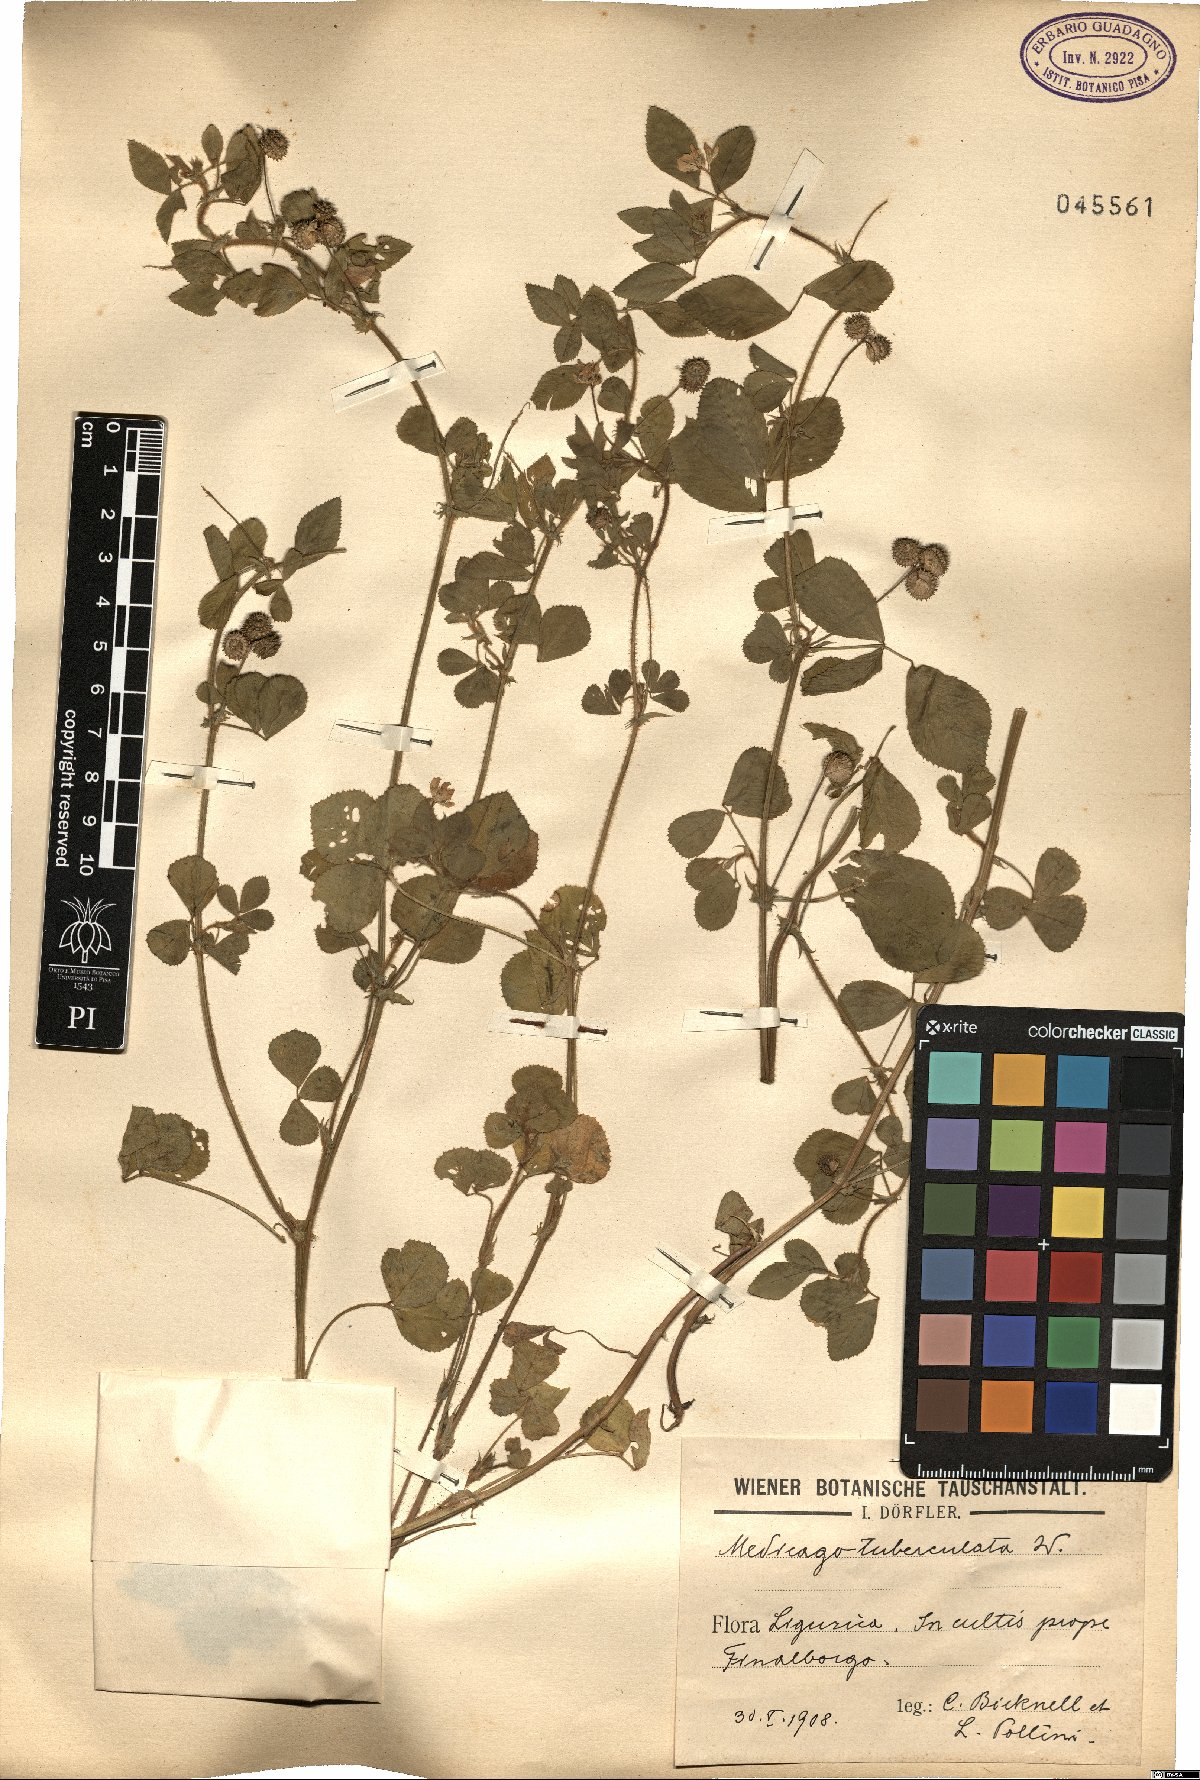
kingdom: Plantae
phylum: Tracheophyta
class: Magnoliopsida
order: Fabales
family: Fabaceae
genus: Medicago
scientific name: Medicago turbinata
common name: Southern medick
